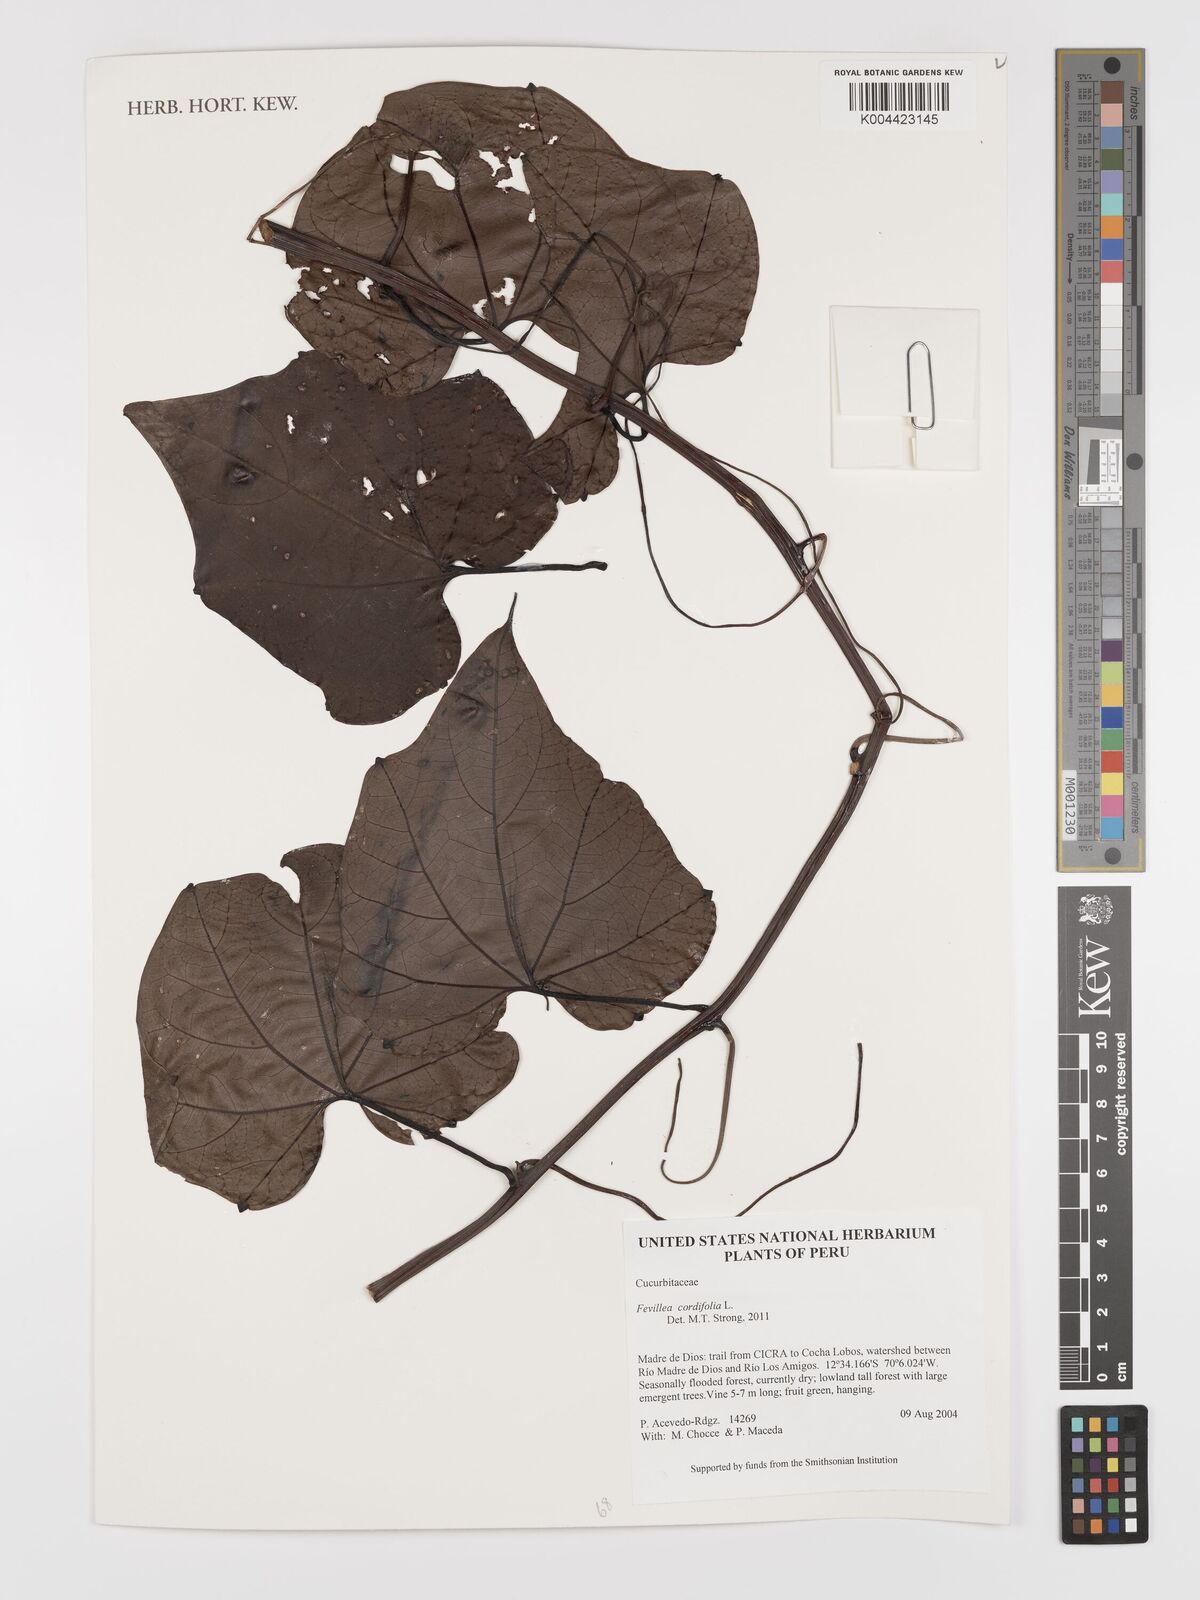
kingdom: Plantae
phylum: Tracheophyta
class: Magnoliopsida
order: Cucurbitales
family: Cucurbitaceae
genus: Fevillea
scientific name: Fevillea
